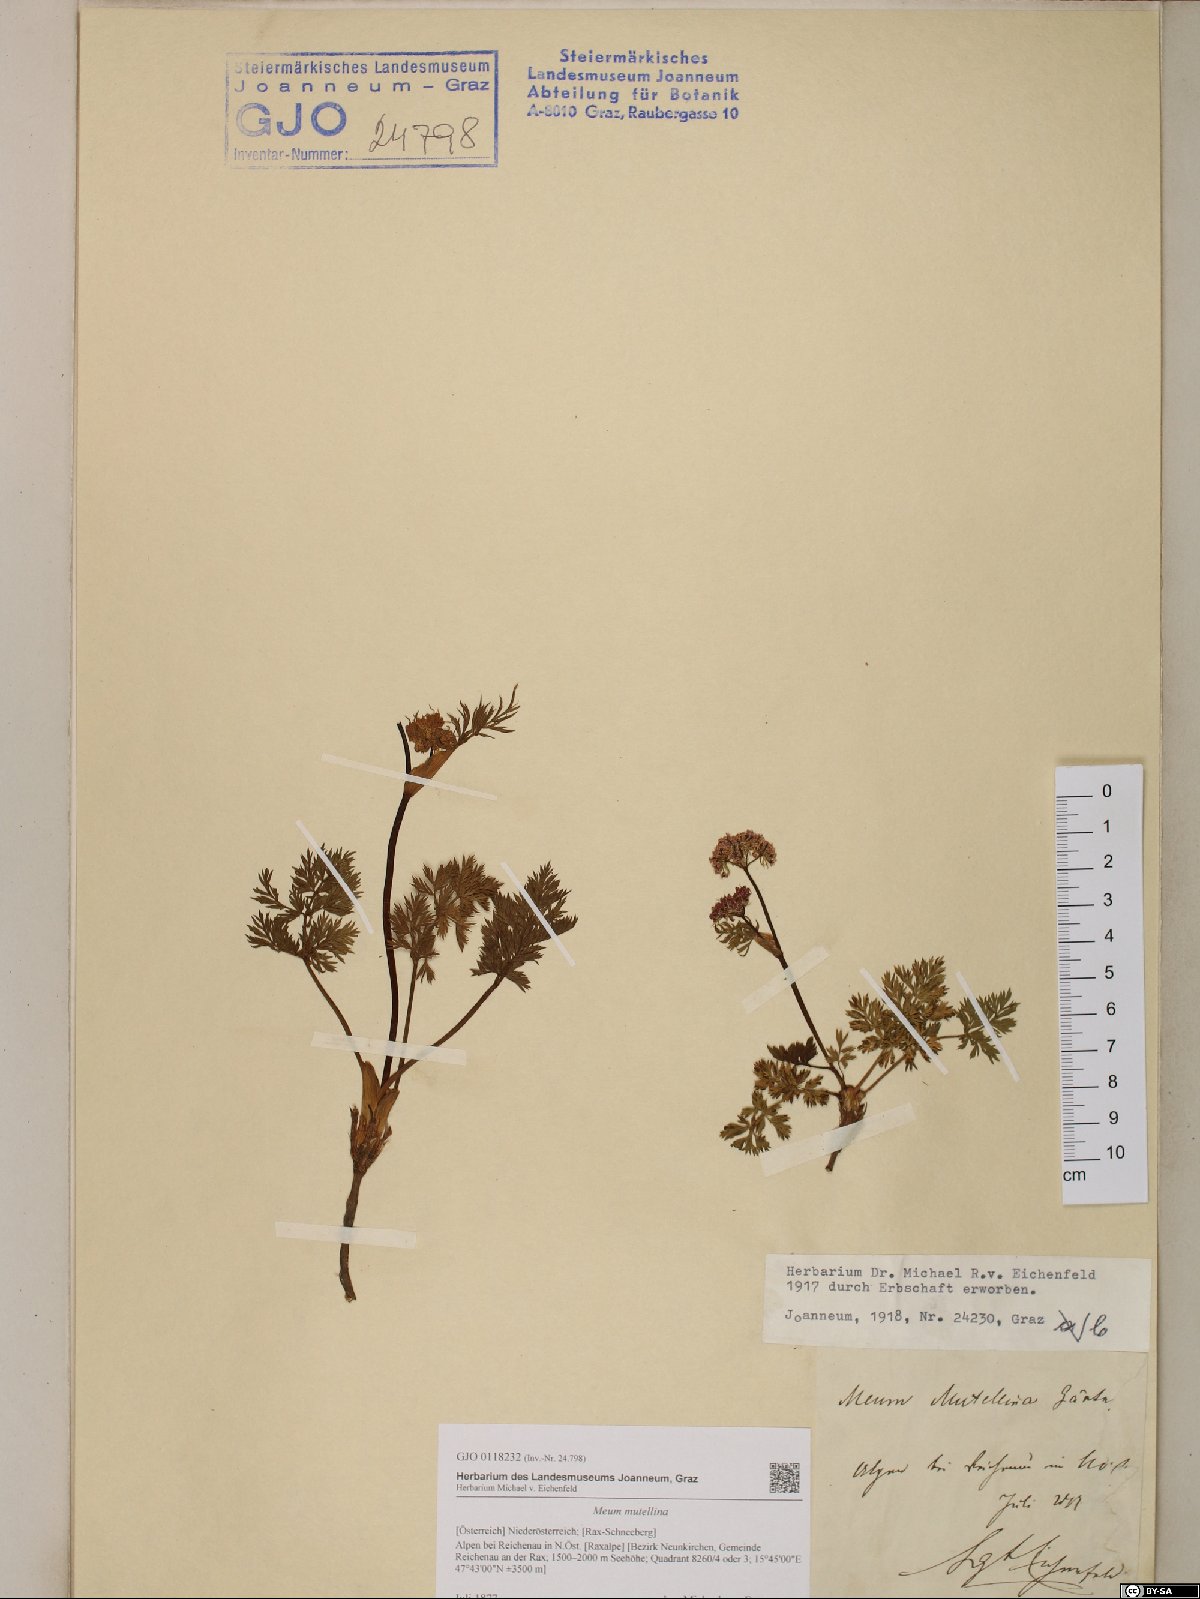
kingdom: Plantae
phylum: Tracheophyta
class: Magnoliopsida
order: Apiales
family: Apiaceae
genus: Mutellina
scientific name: Mutellina adonidifolia
